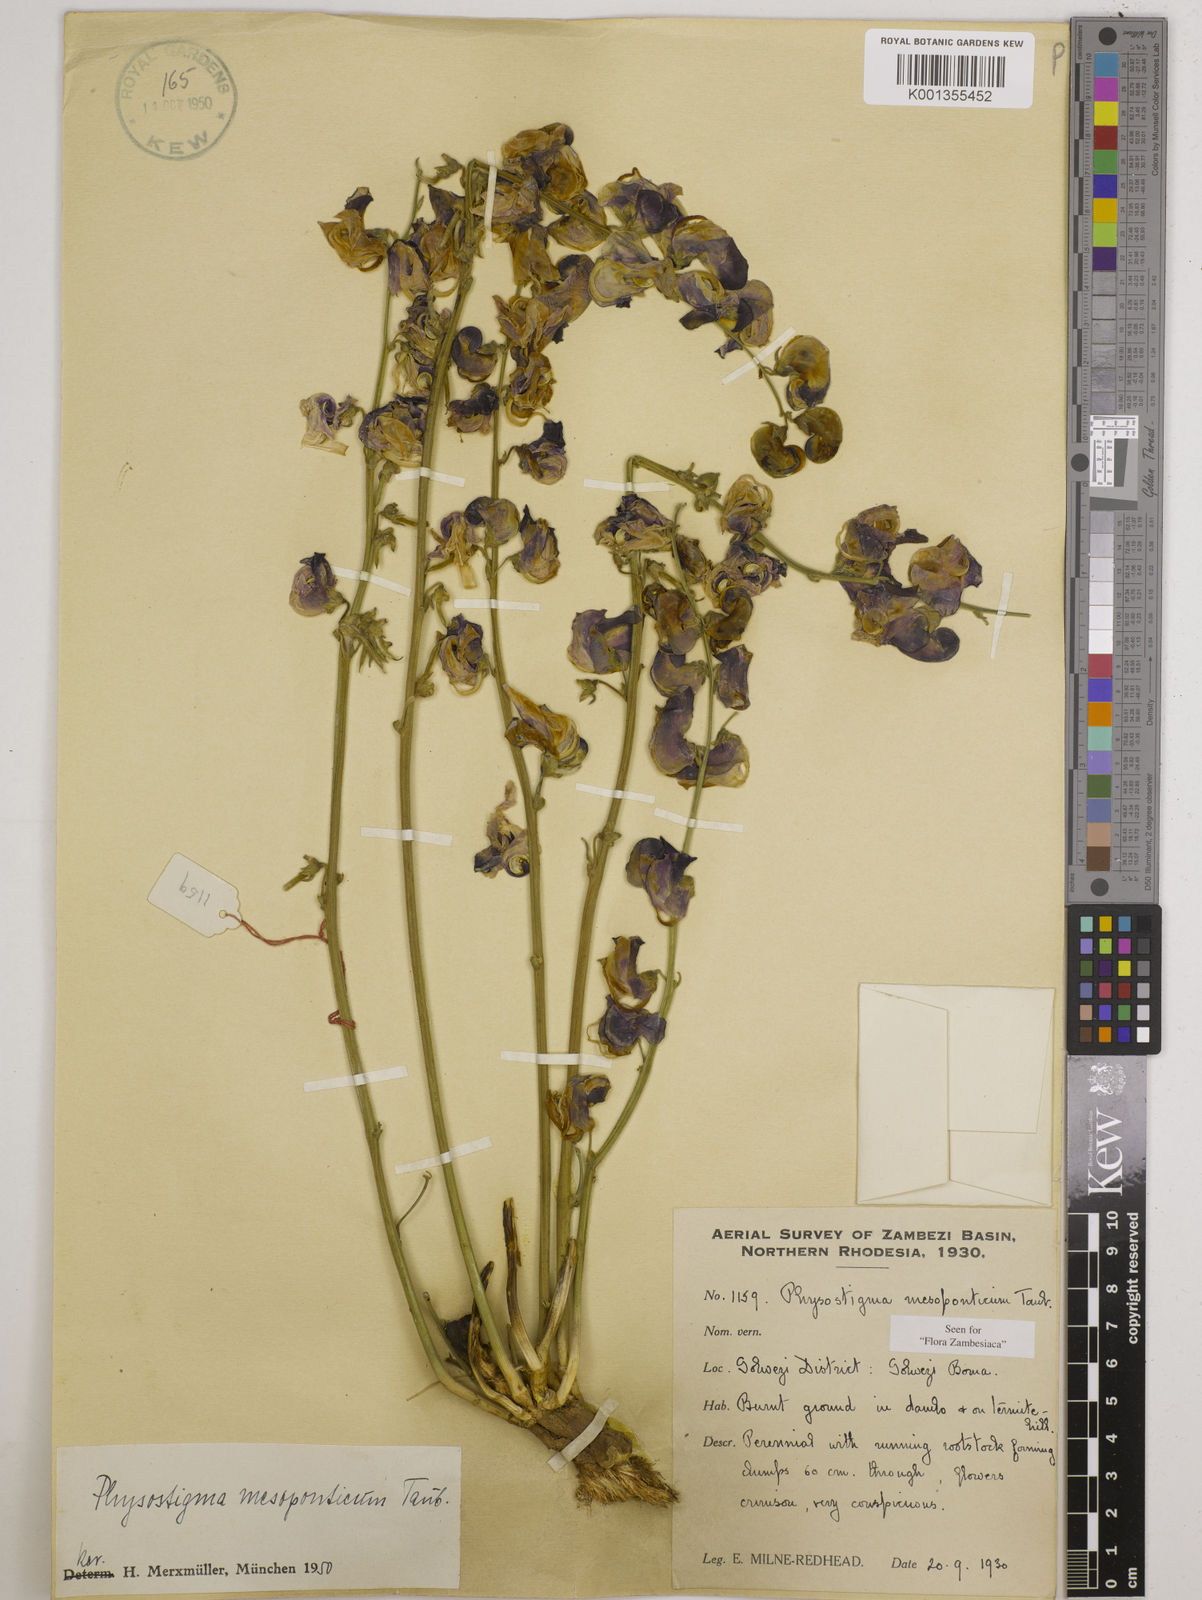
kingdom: Plantae
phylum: Tracheophyta
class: Magnoliopsida
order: Fabales
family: Fabaceae
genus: Physostigma
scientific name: Physostigma mesoponticum
